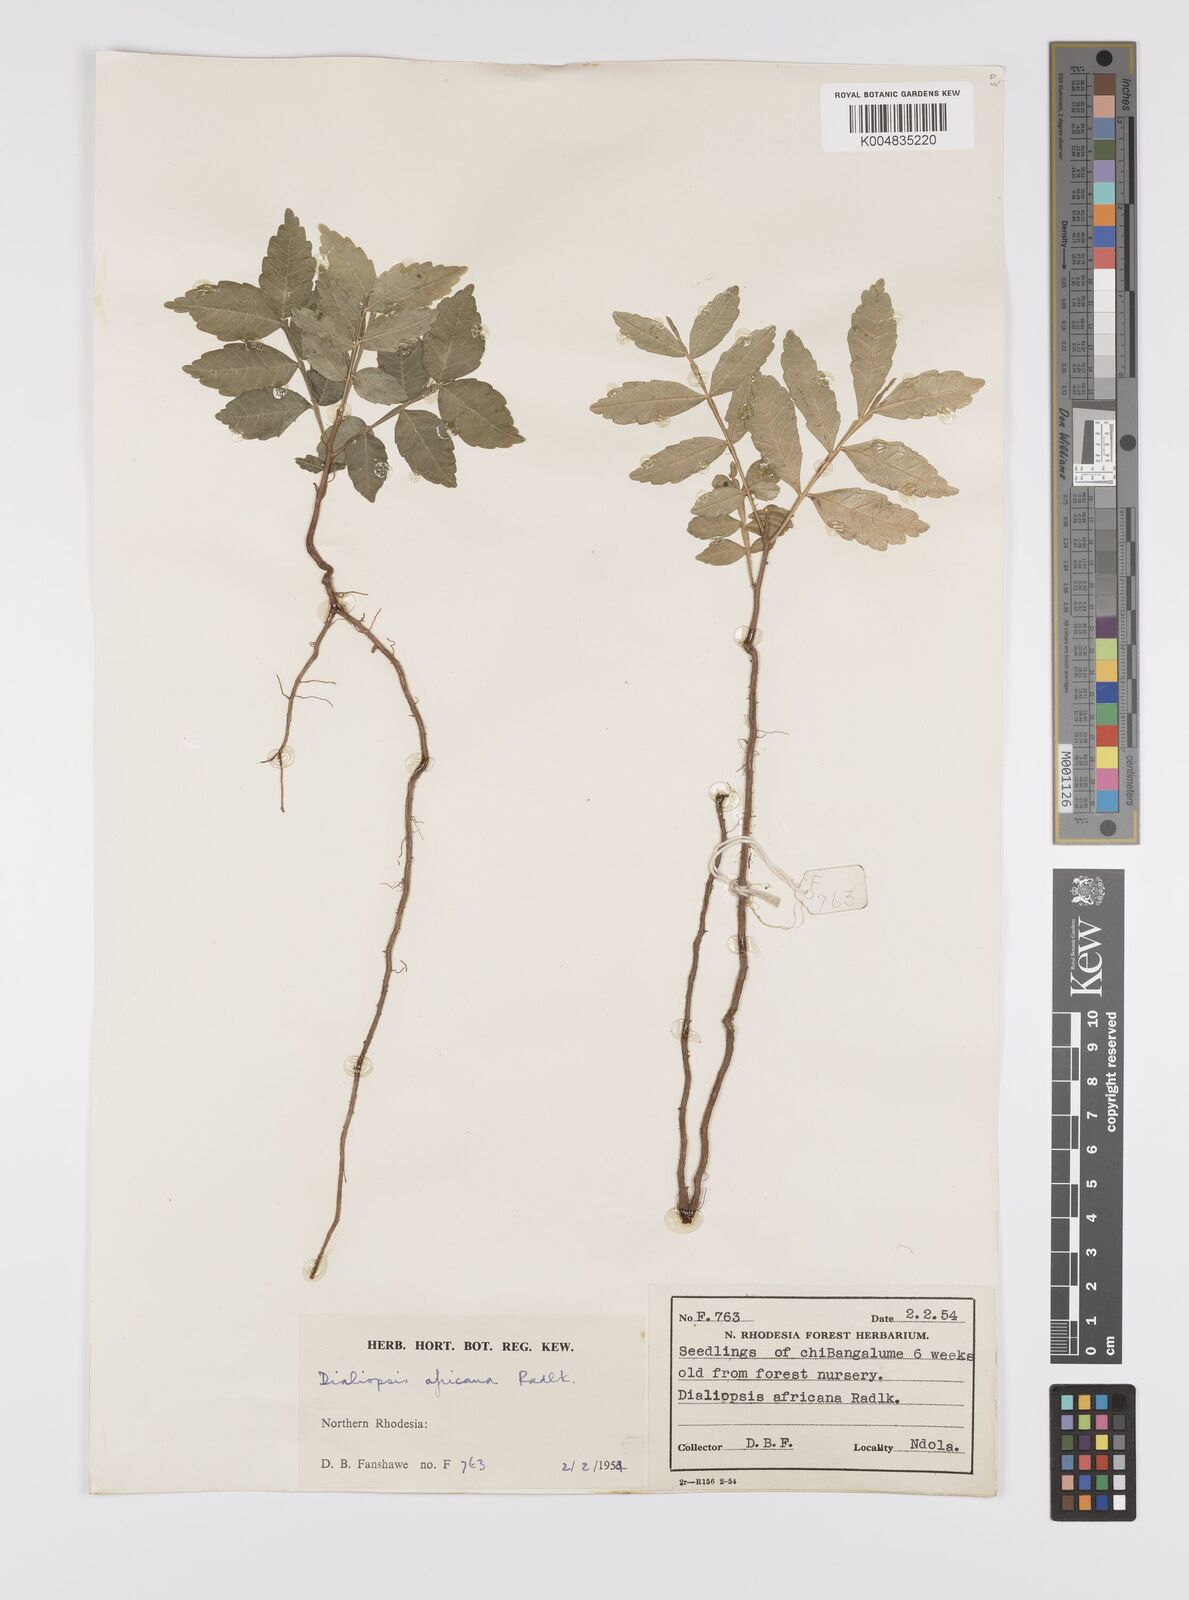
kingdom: Plantae
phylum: Tracheophyta
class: Magnoliopsida
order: Sapindales
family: Sapindaceae
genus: Zanha
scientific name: Zanha africana
